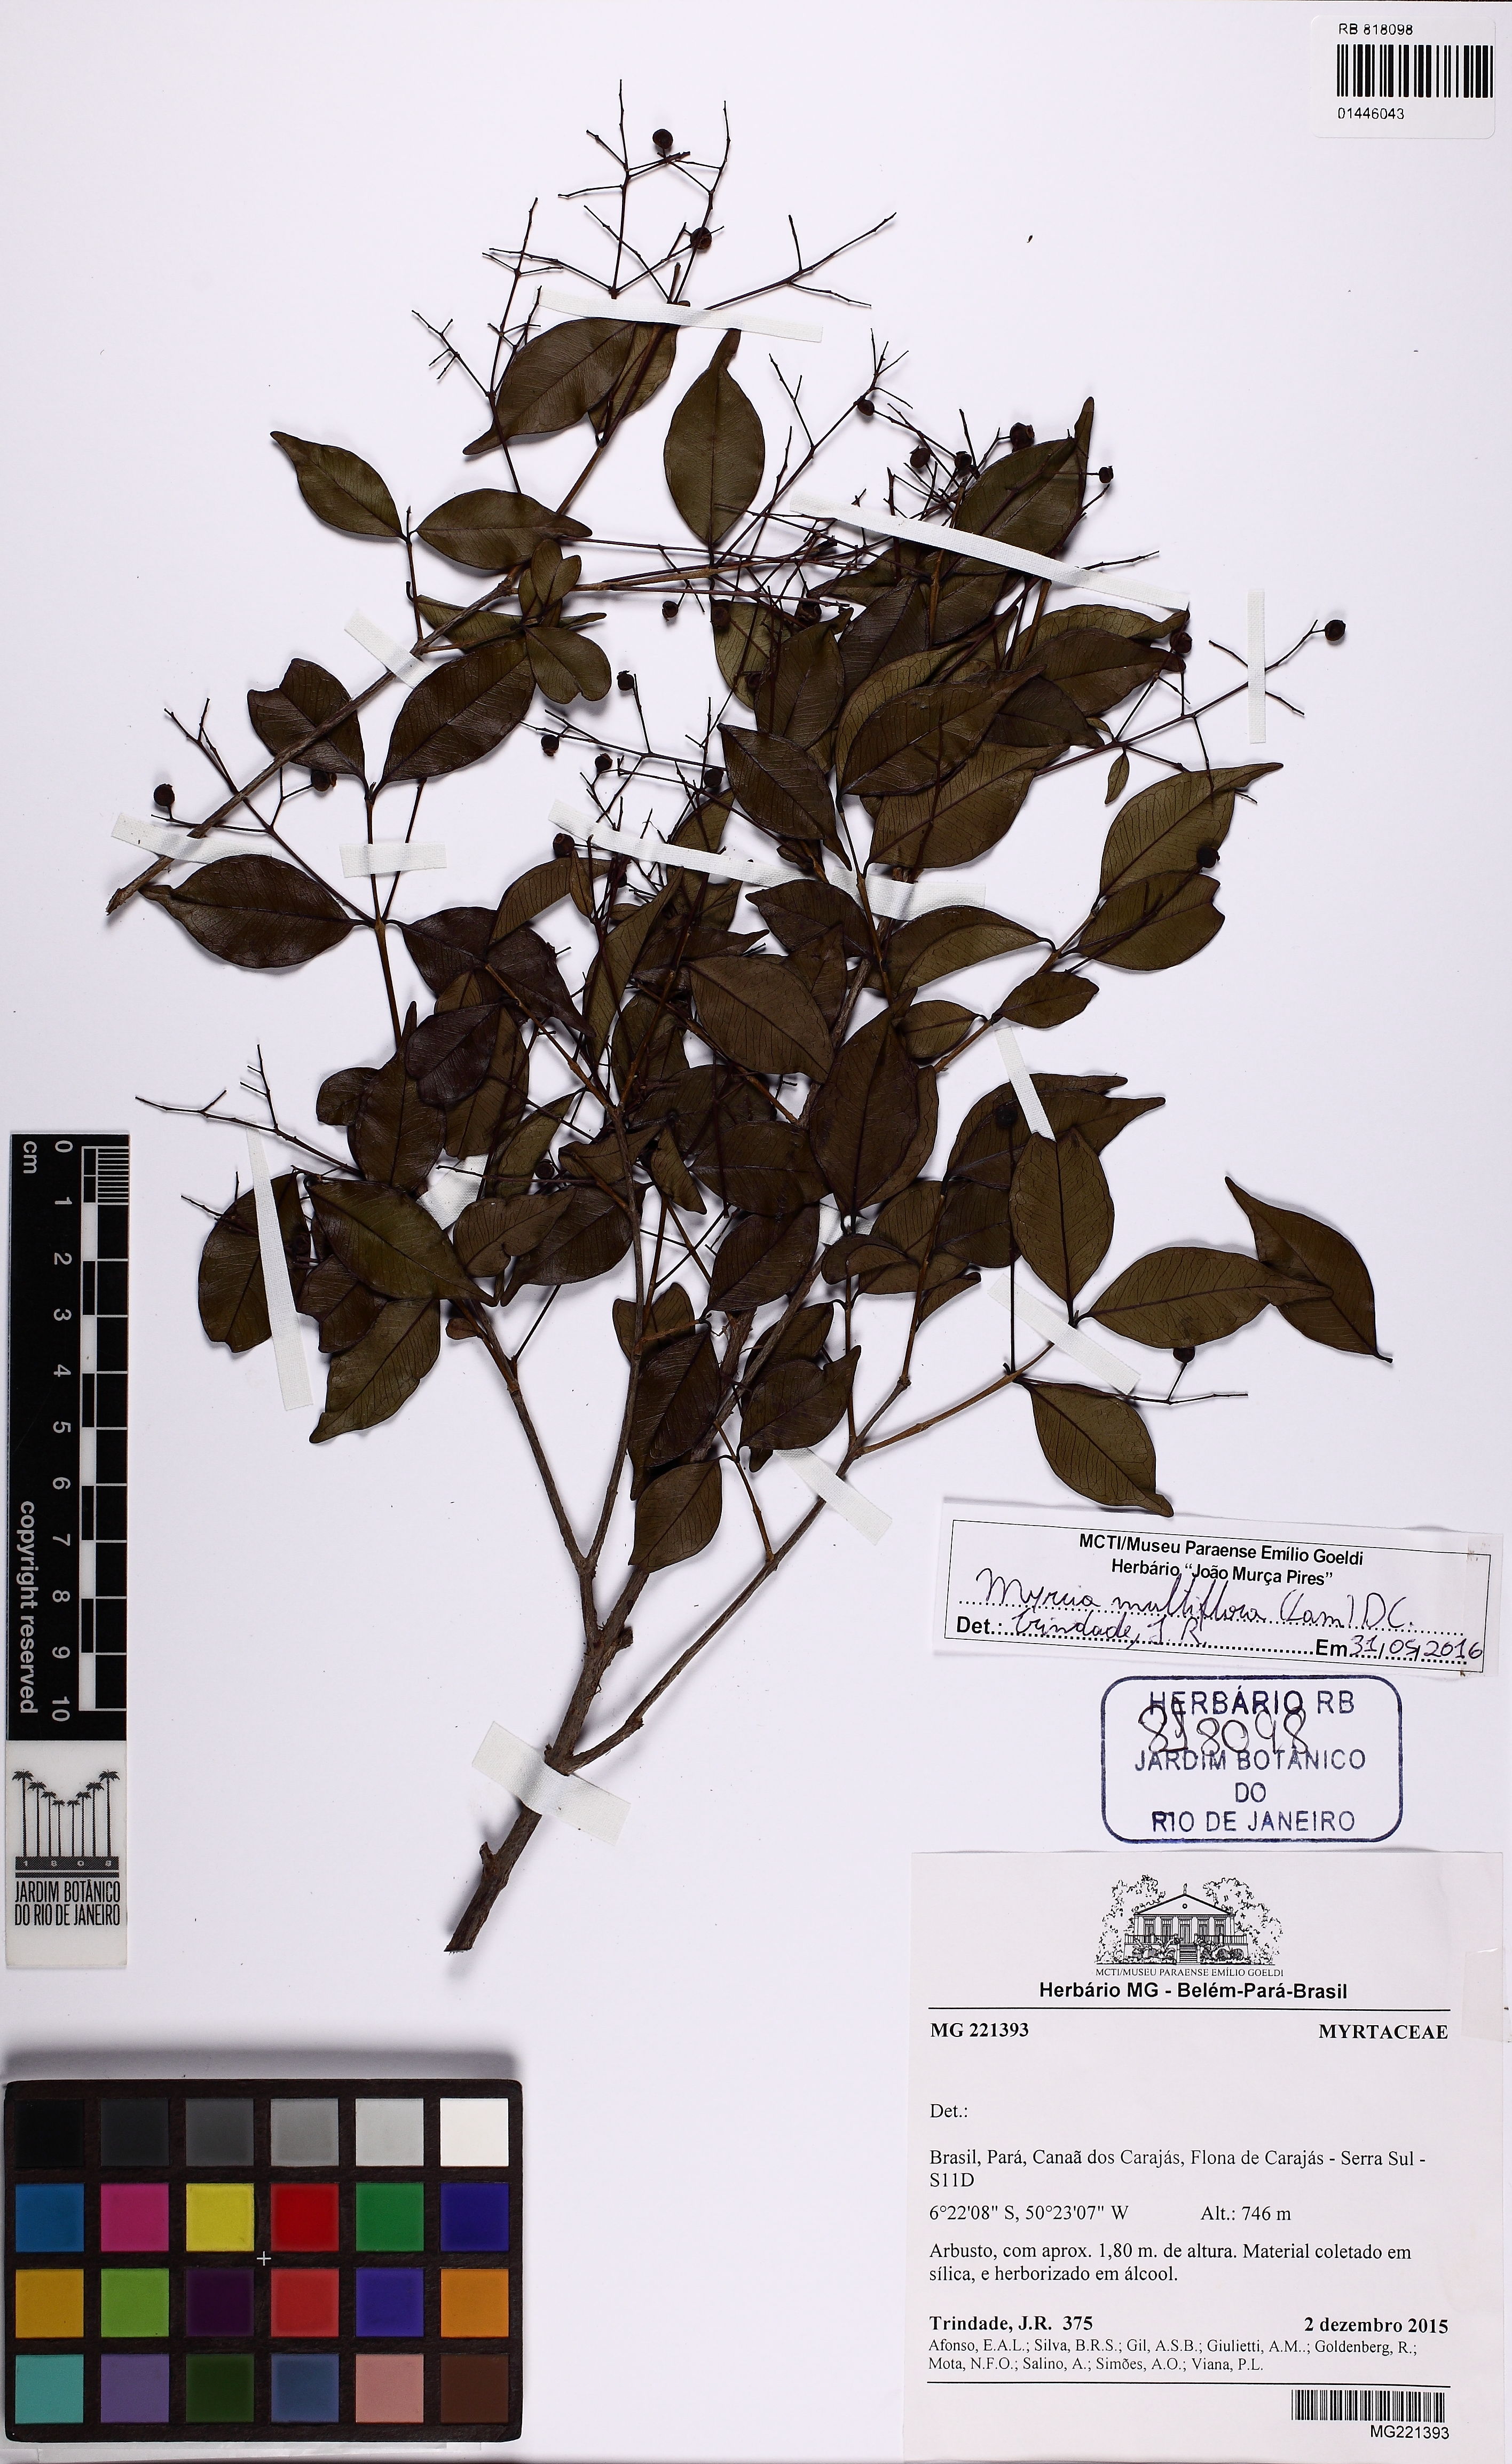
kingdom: Plantae
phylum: Tracheophyta
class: Magnoliopsida
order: Myrtales
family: Myrtaceae
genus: Myrcia
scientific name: Myrcia multiflora
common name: Pedra hume
